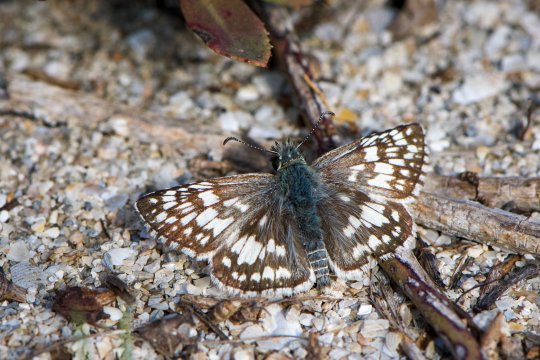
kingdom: Animalia
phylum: Arthropoda
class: Insecta
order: Lepidoptera
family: Hesperiidae
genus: Pyrgus
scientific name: Pyrgus
